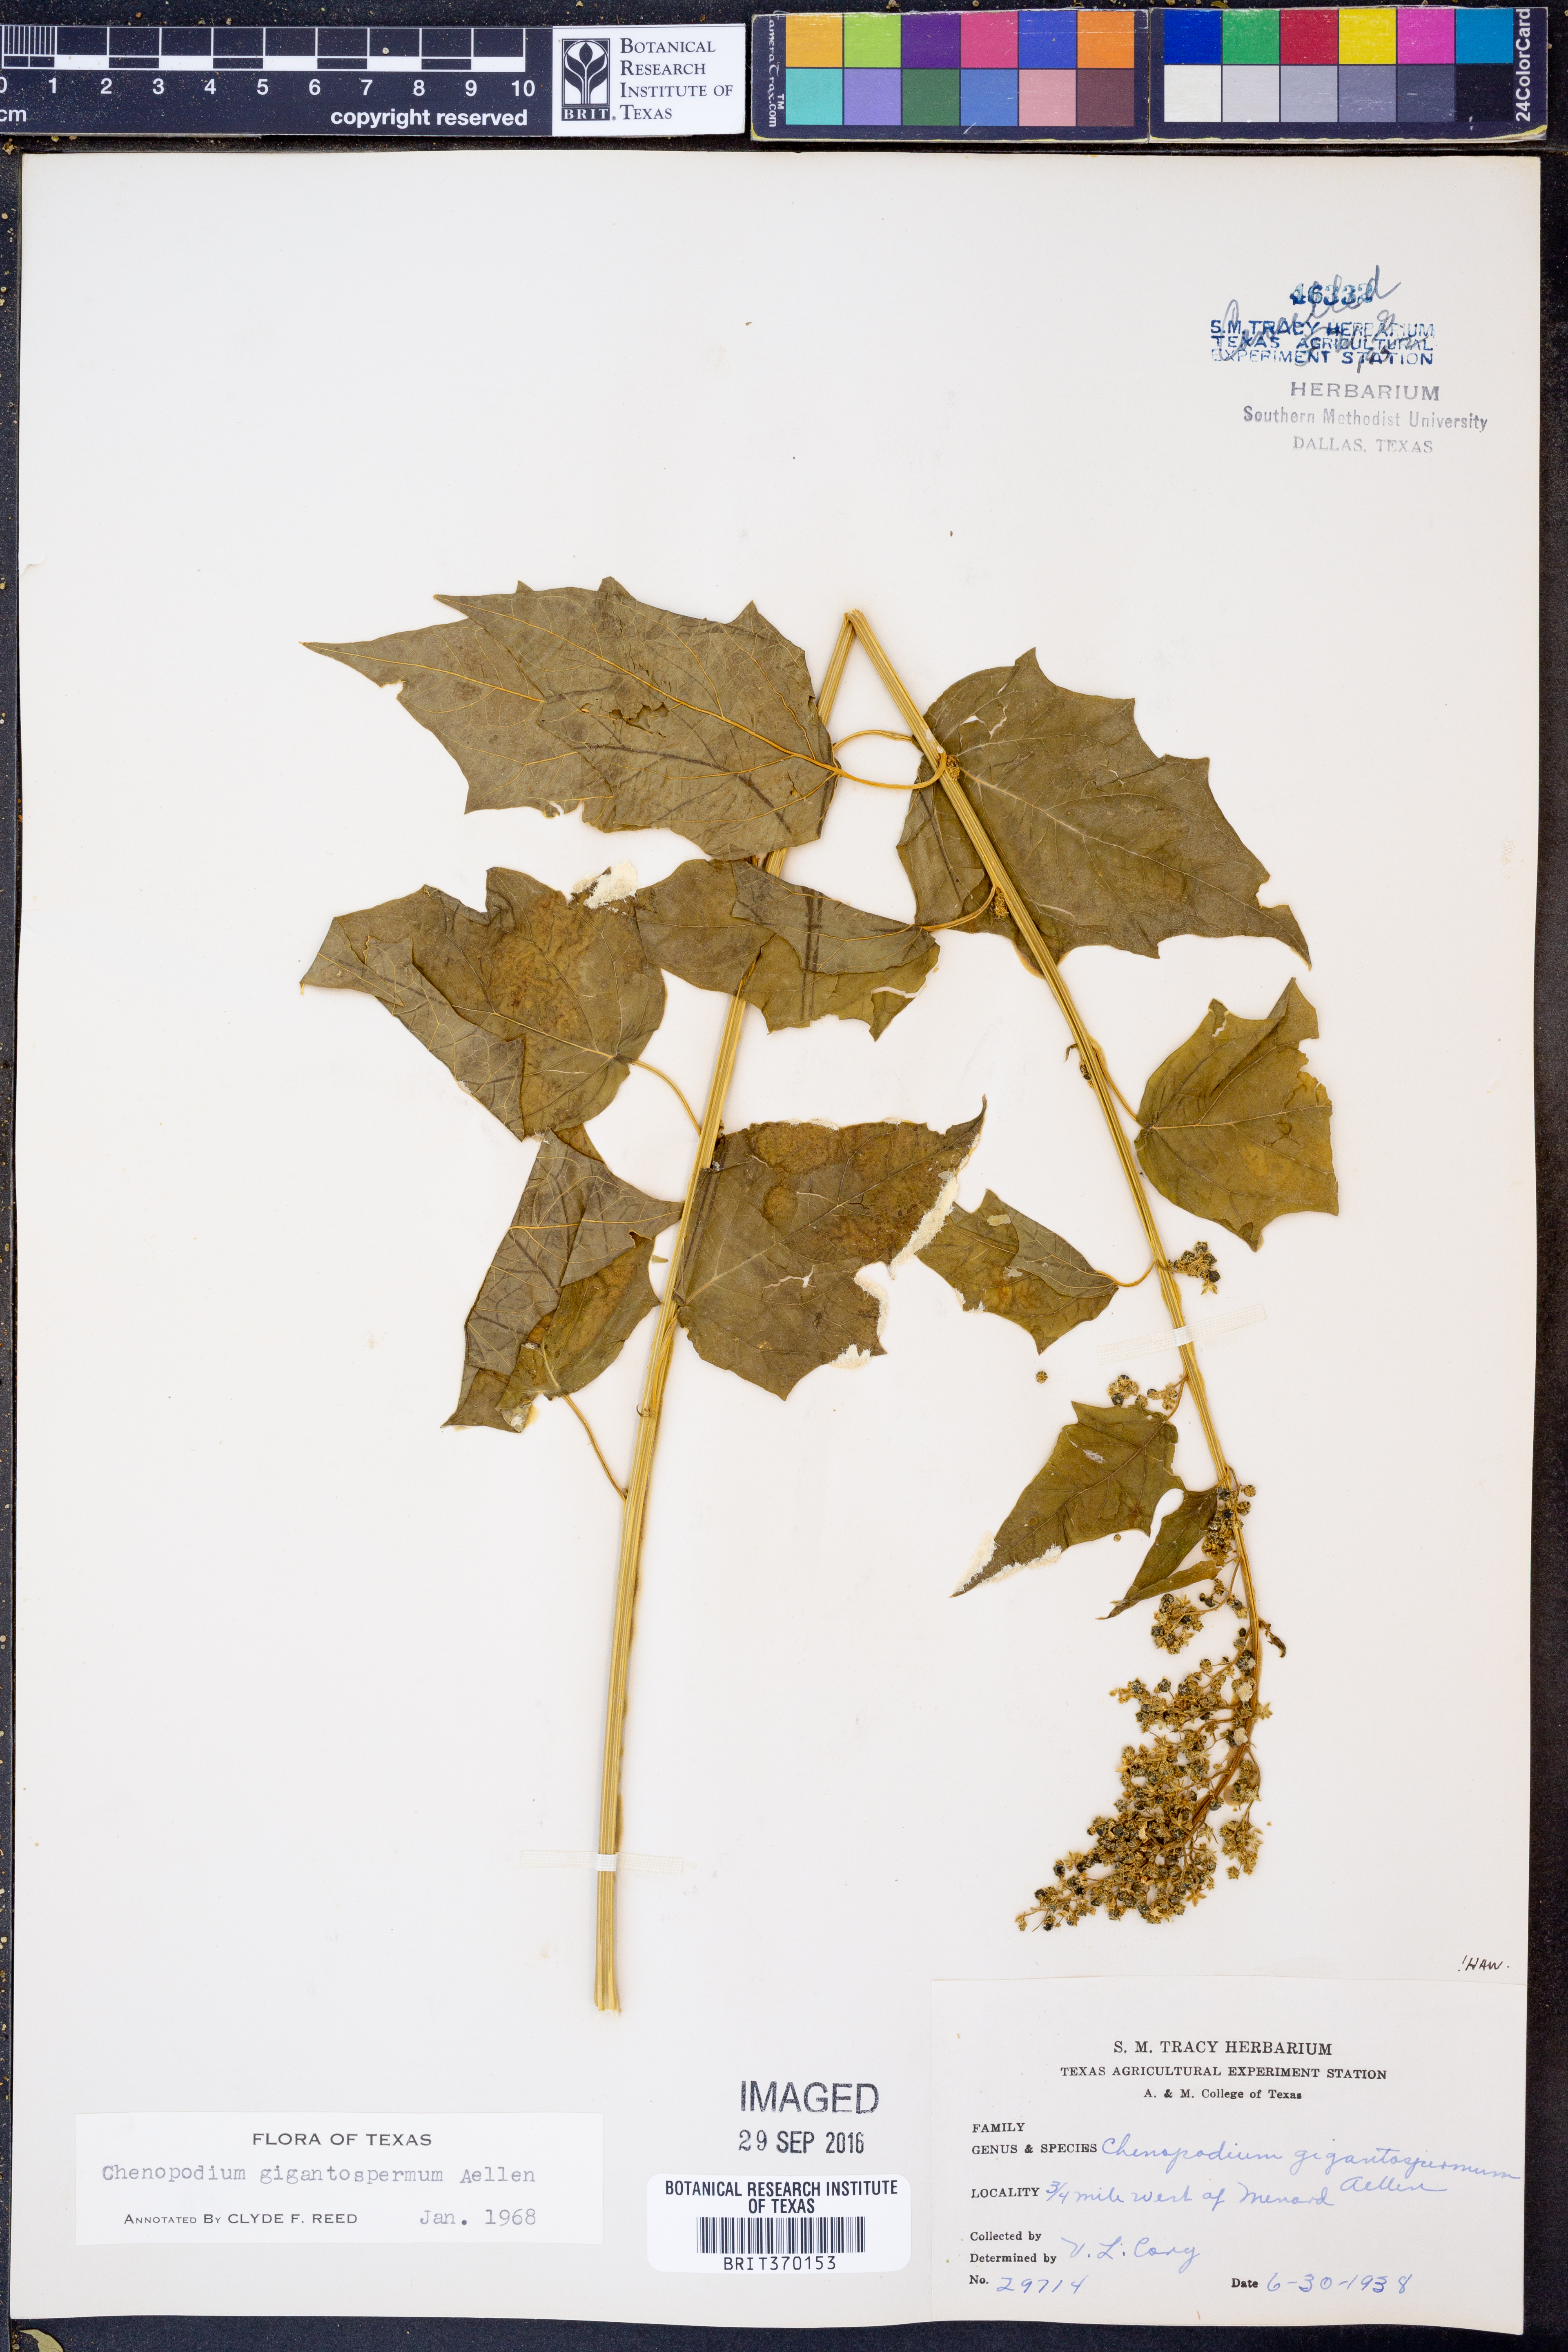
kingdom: Plantae
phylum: Tracheophyta
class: Magnoliopsida
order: Caryophyllales
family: Amaranthaceae
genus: Chenopodiastrum
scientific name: Chenopodiastrum simplex
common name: Large-seed goosefoot
